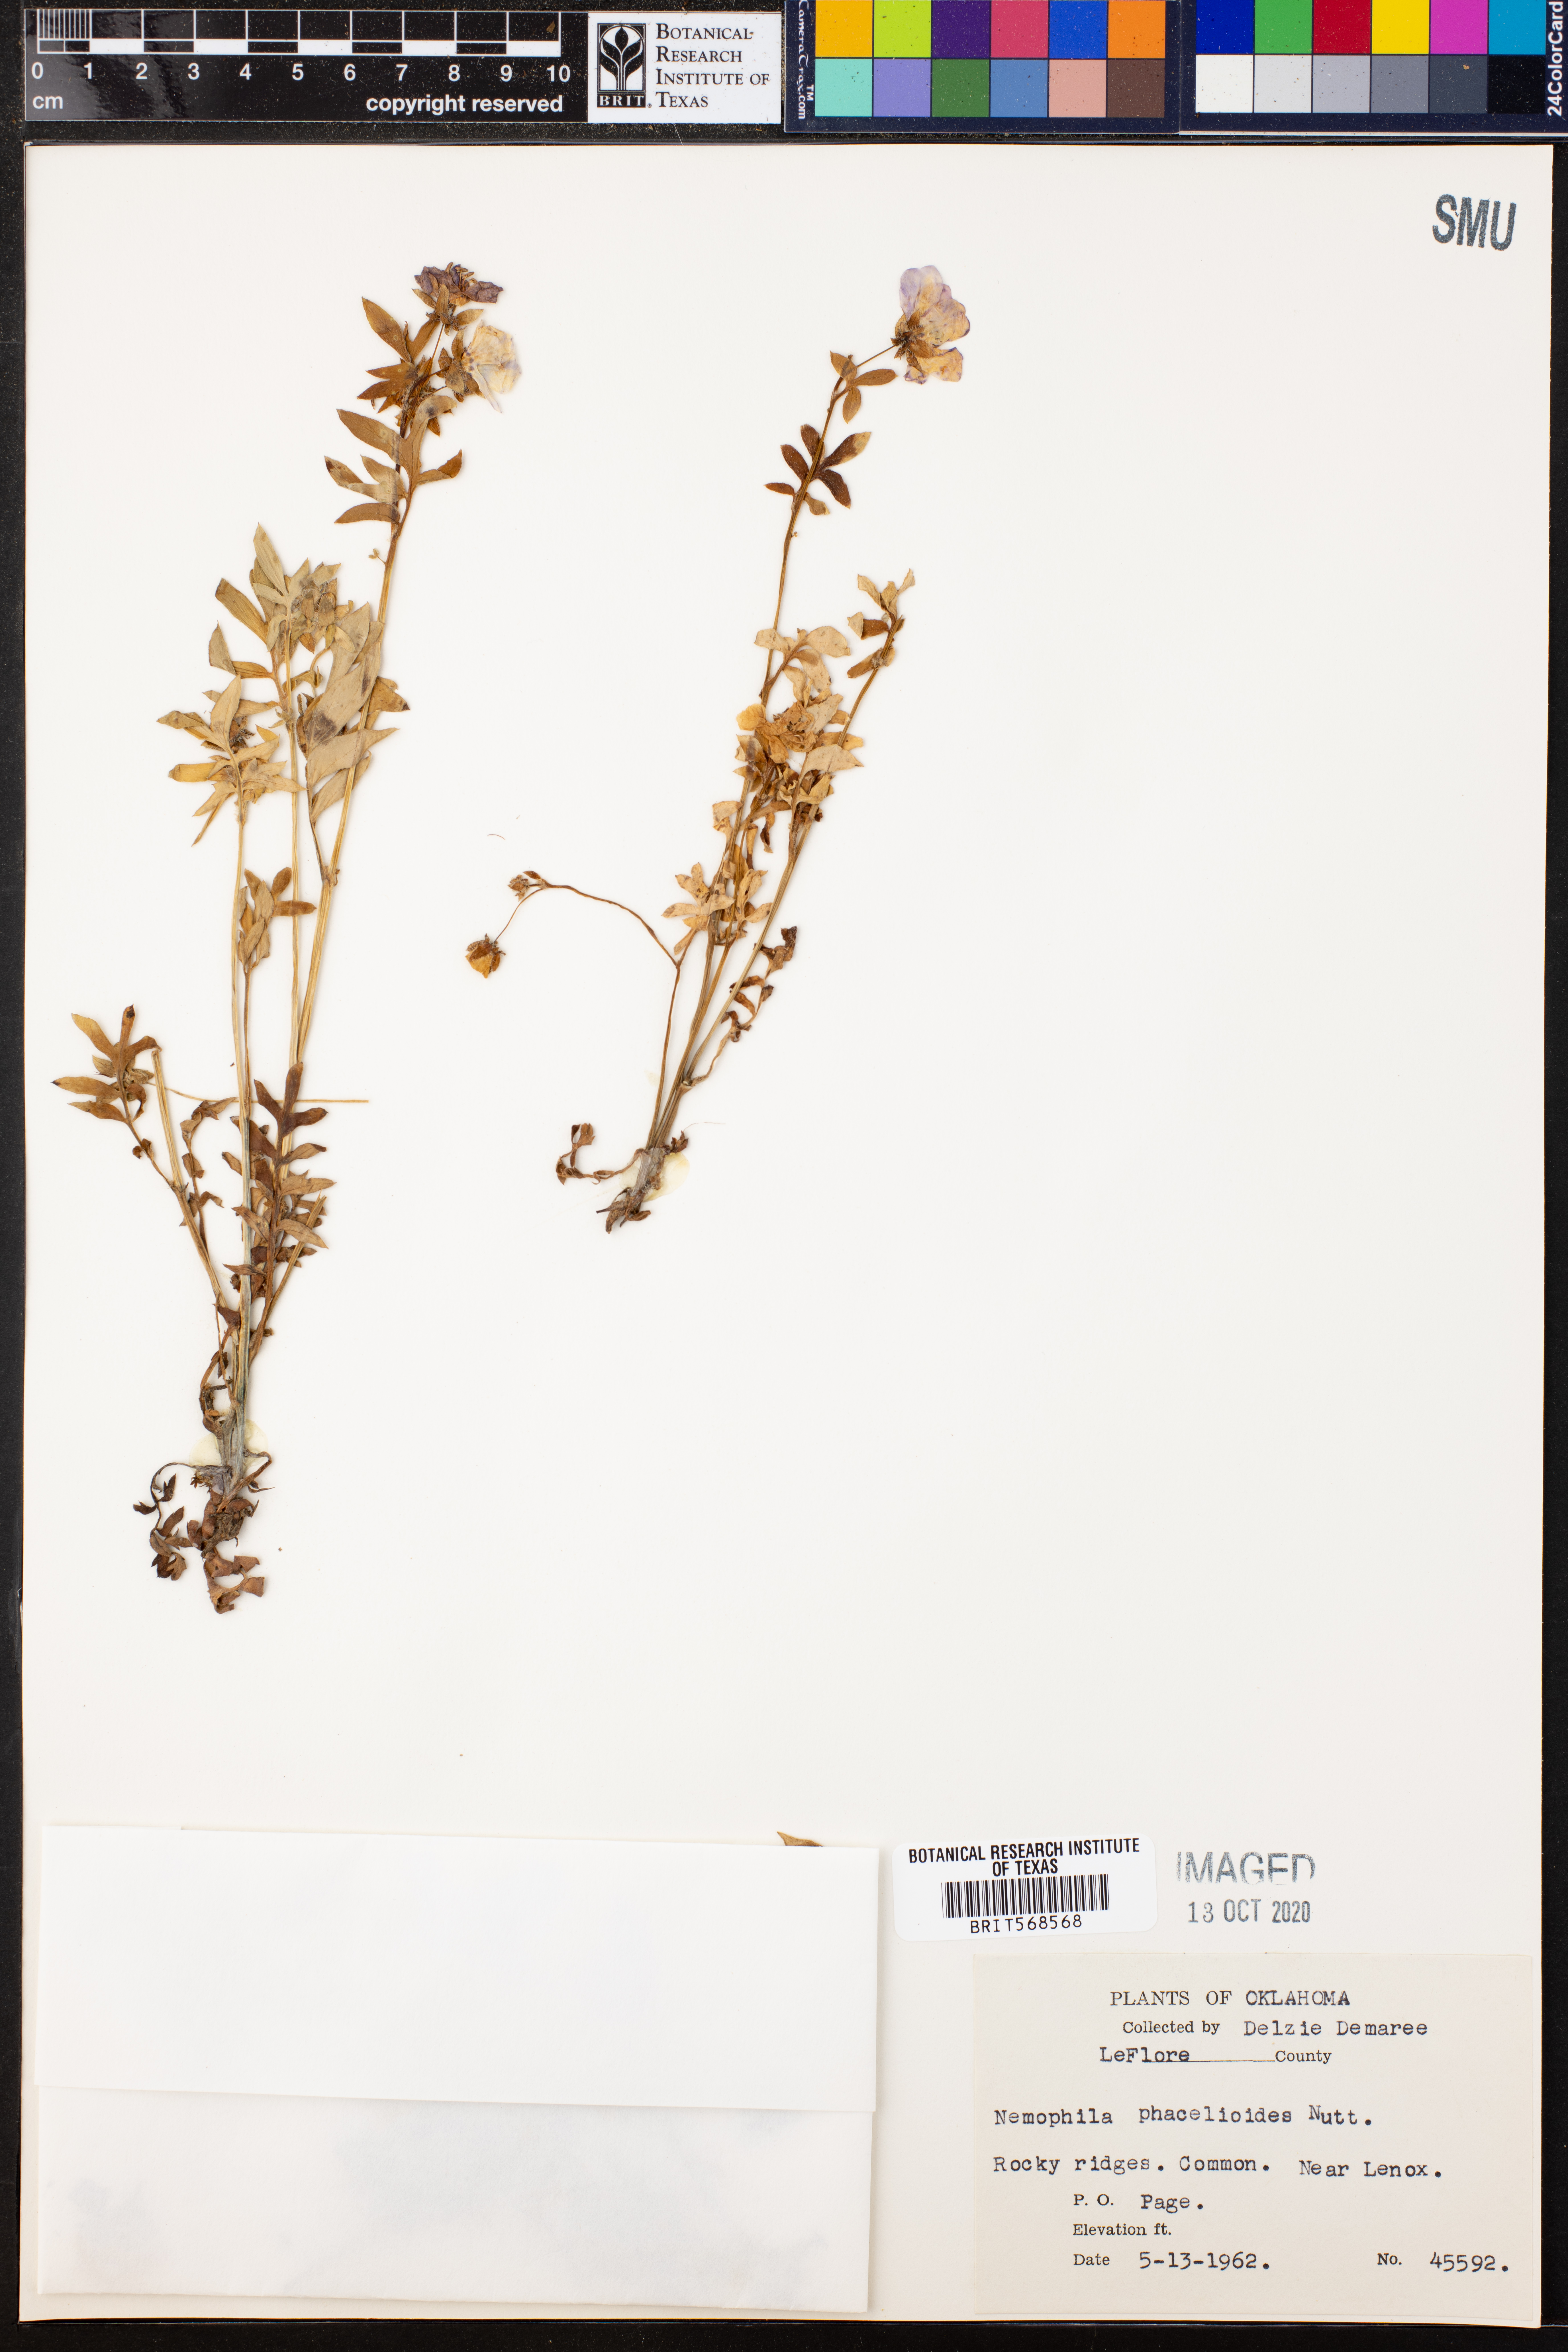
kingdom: Plantae
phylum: Tracheophyta
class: Magnoliopsida
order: Boraginales
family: Hydrophyllaceae
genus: Nemophila
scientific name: Nemophila phacelioides
